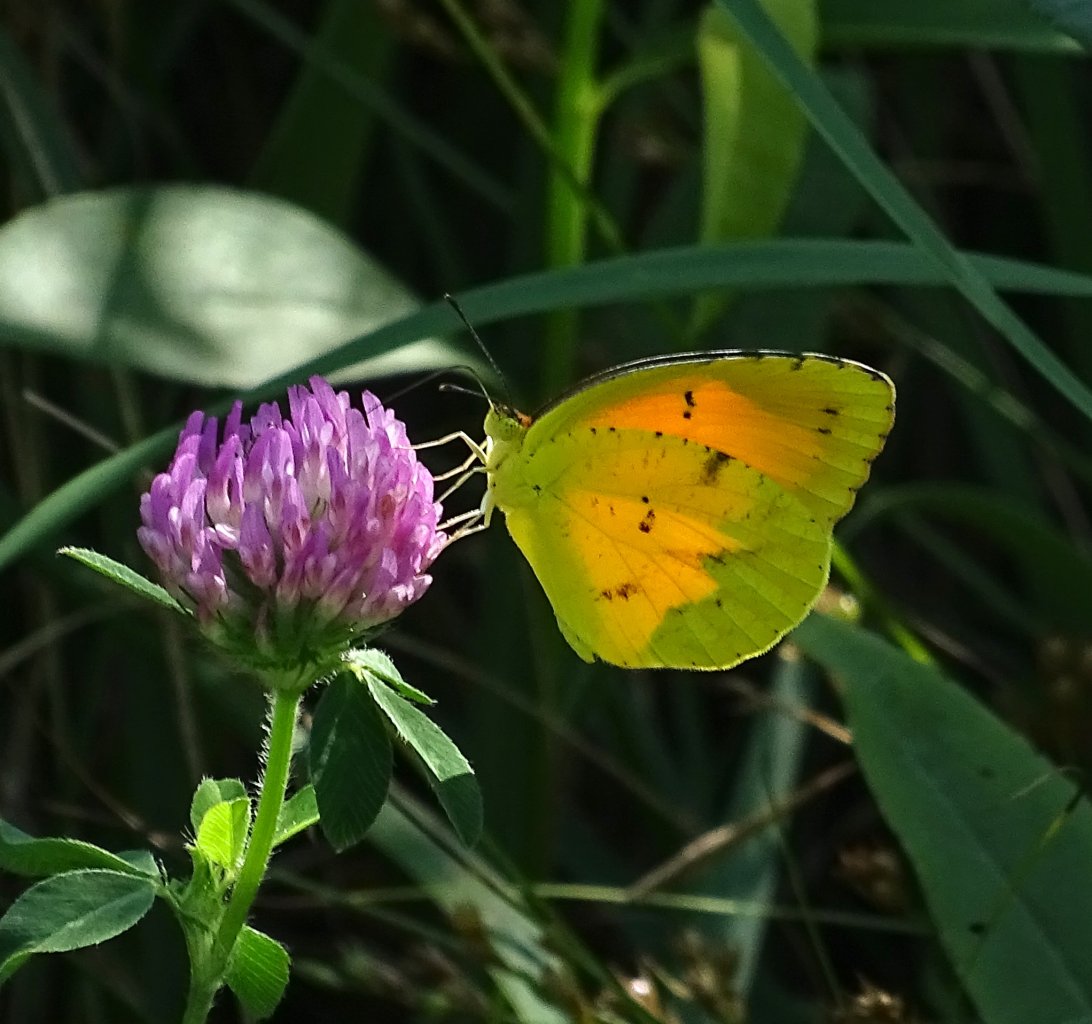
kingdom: Animalia
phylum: Arthropoda
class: Insecta
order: Lepidoptera
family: Pieridae
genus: Abaeis
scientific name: Abaeis nicippe
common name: Sleepy Orange
